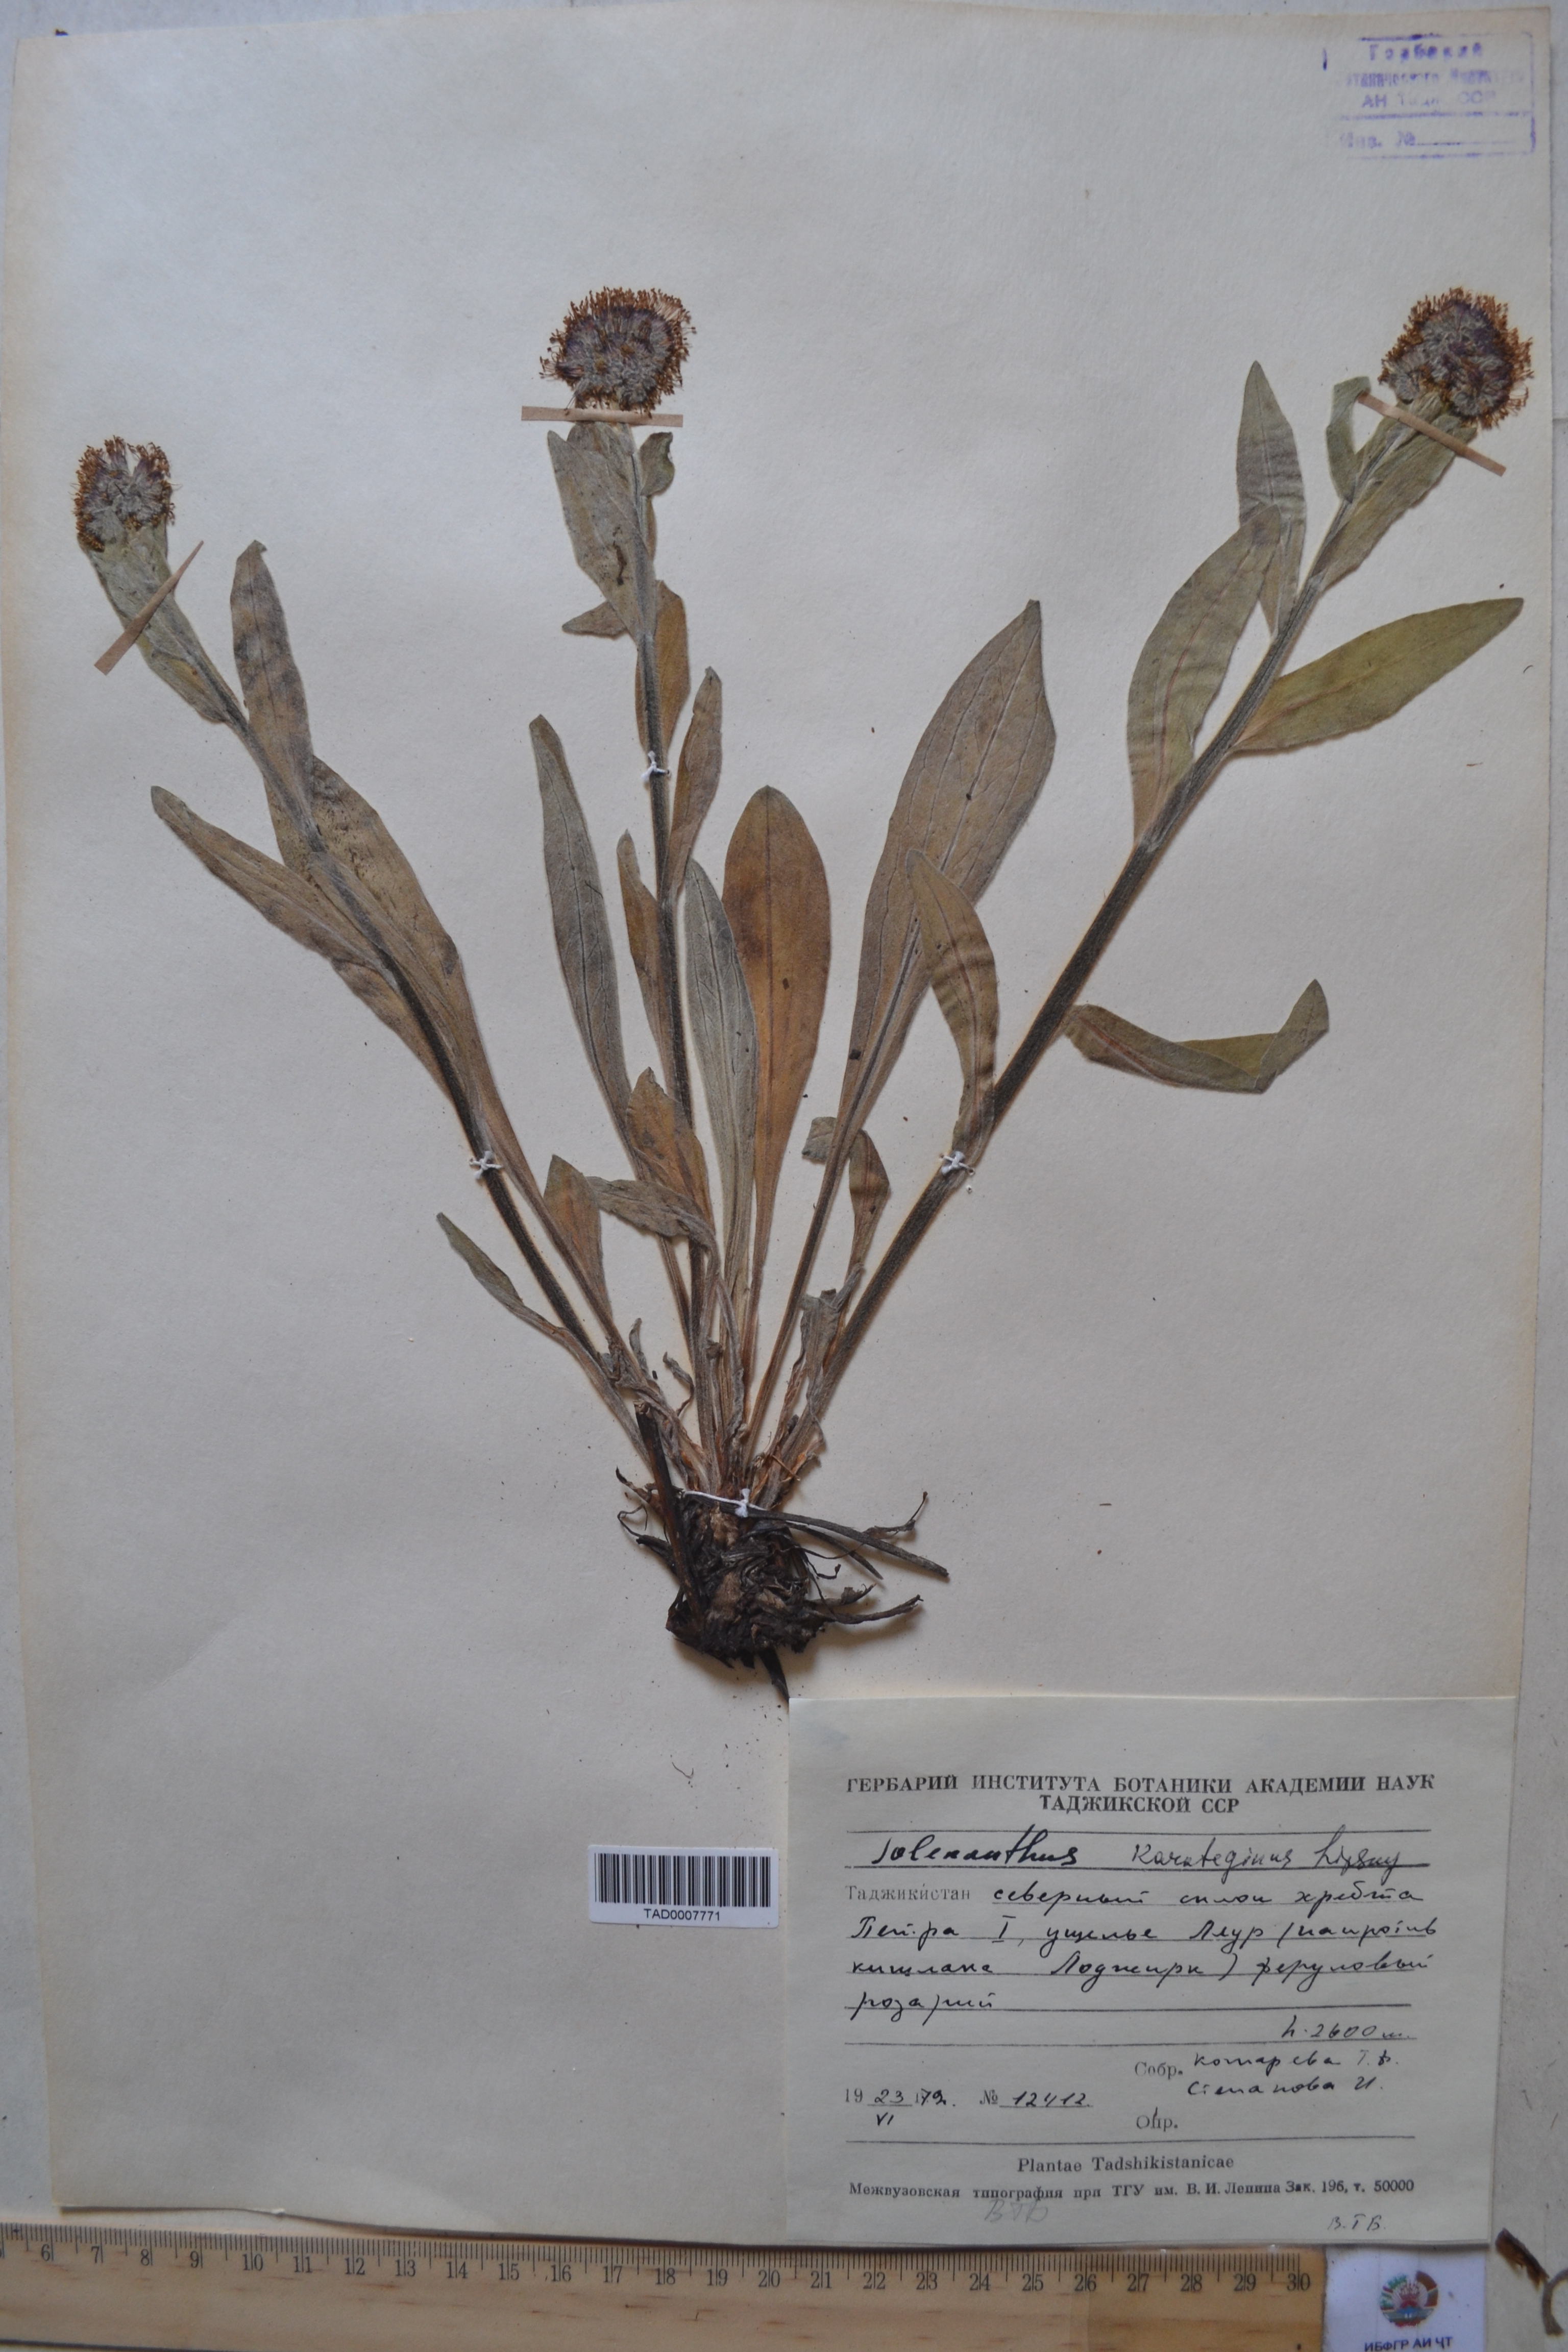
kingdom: Plantae
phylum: Tracheophyta
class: Magnoliopsida
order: Boraginales
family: Boraginaceae
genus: Solenanthus
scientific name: Solenanthus karateginus
